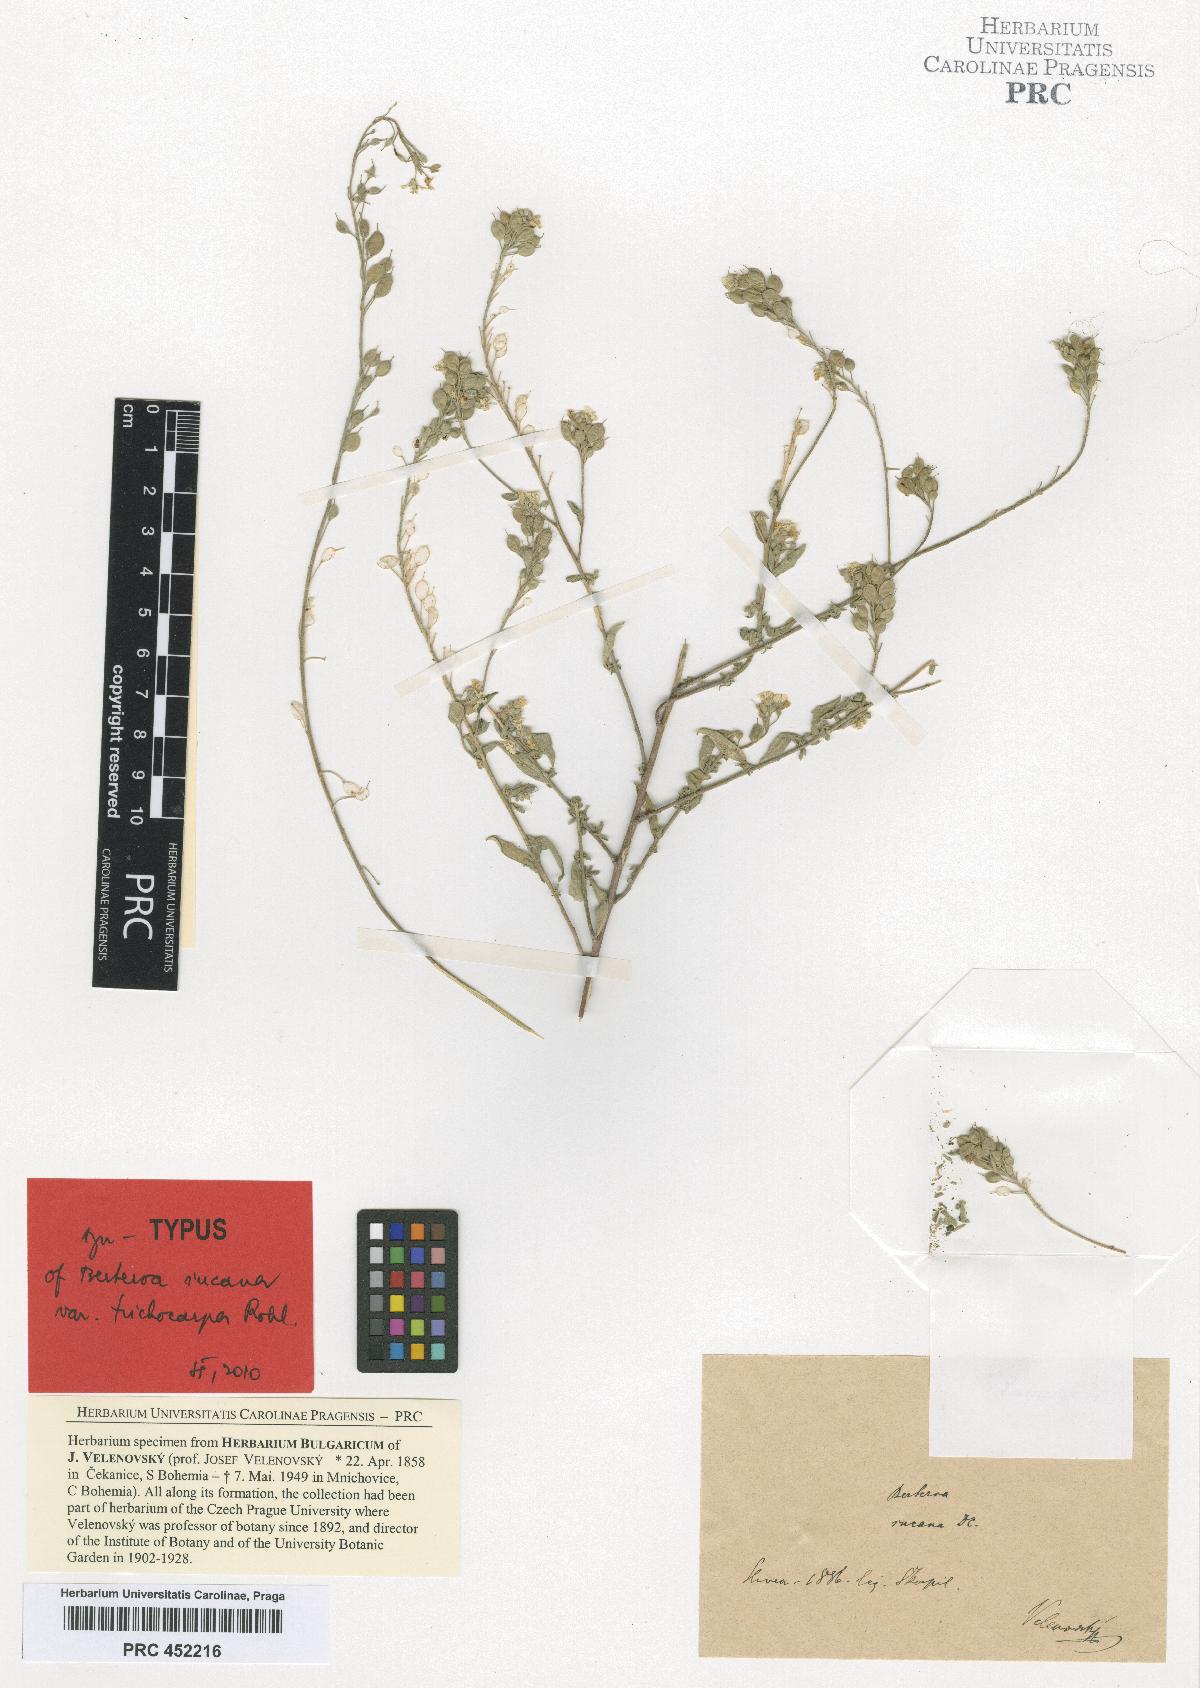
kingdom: Plantae
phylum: Tracheophyta
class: Magnoliopsida
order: Brassicales
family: Brassicaceae
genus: Berteroa
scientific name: Berteroa incana
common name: Hoary alison
